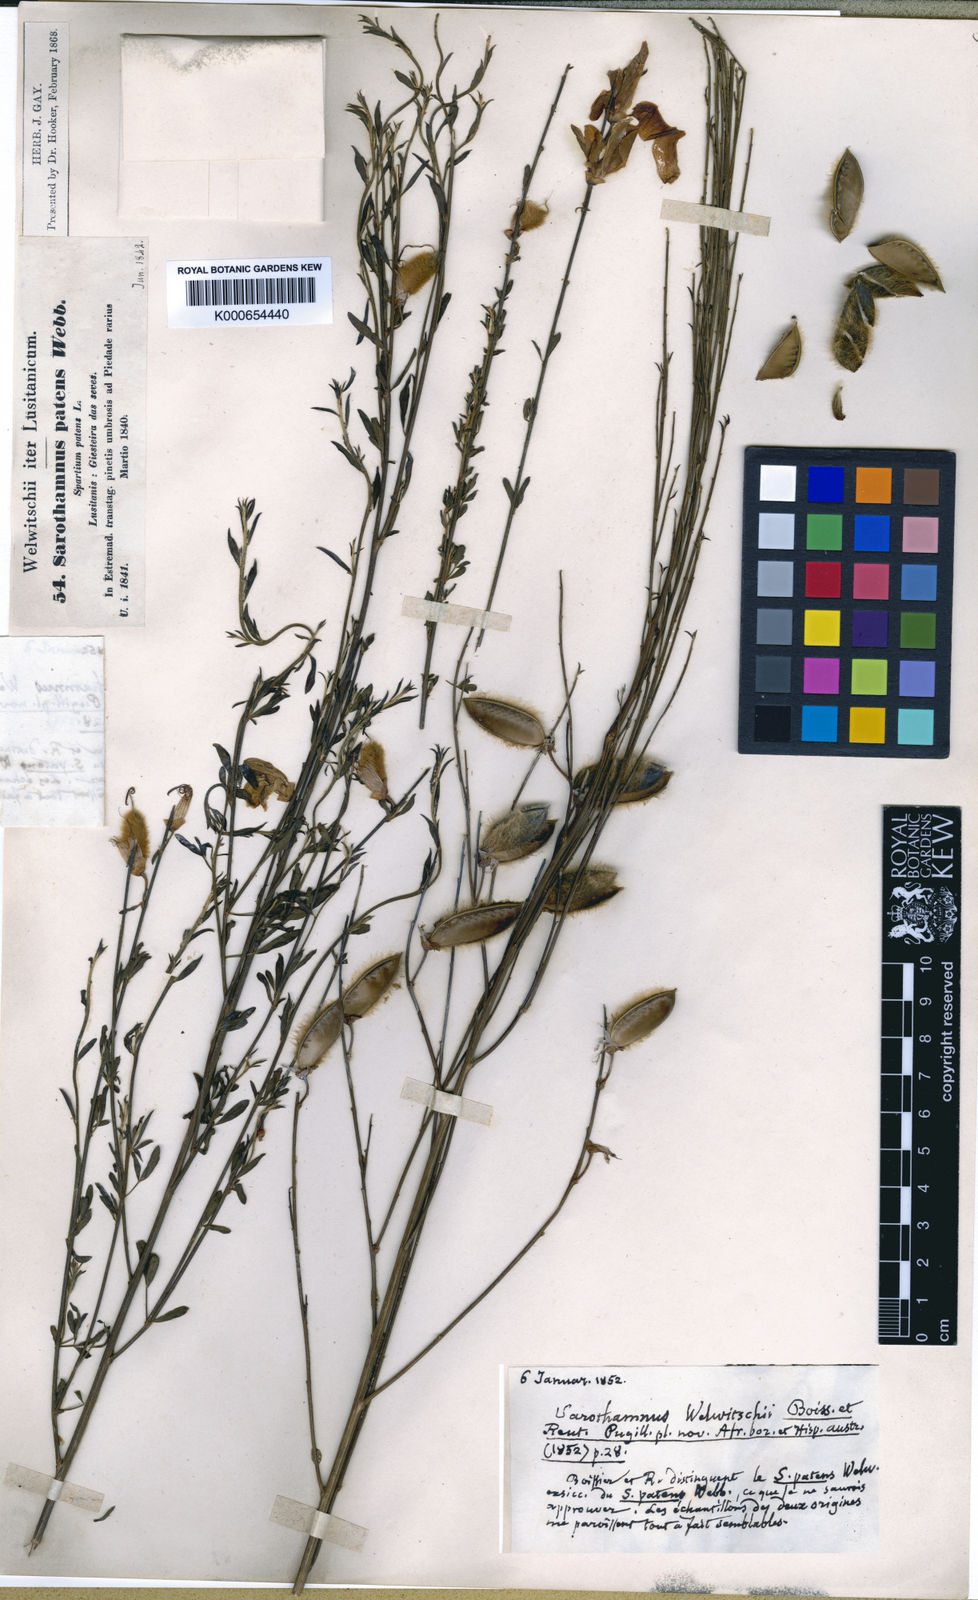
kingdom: Plantae
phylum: Tracheophyta
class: Magnoliopsida
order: Fabales
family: Fabaceae
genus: Cytisus
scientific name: Cytisus striatus
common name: Hairy-fruited broom
